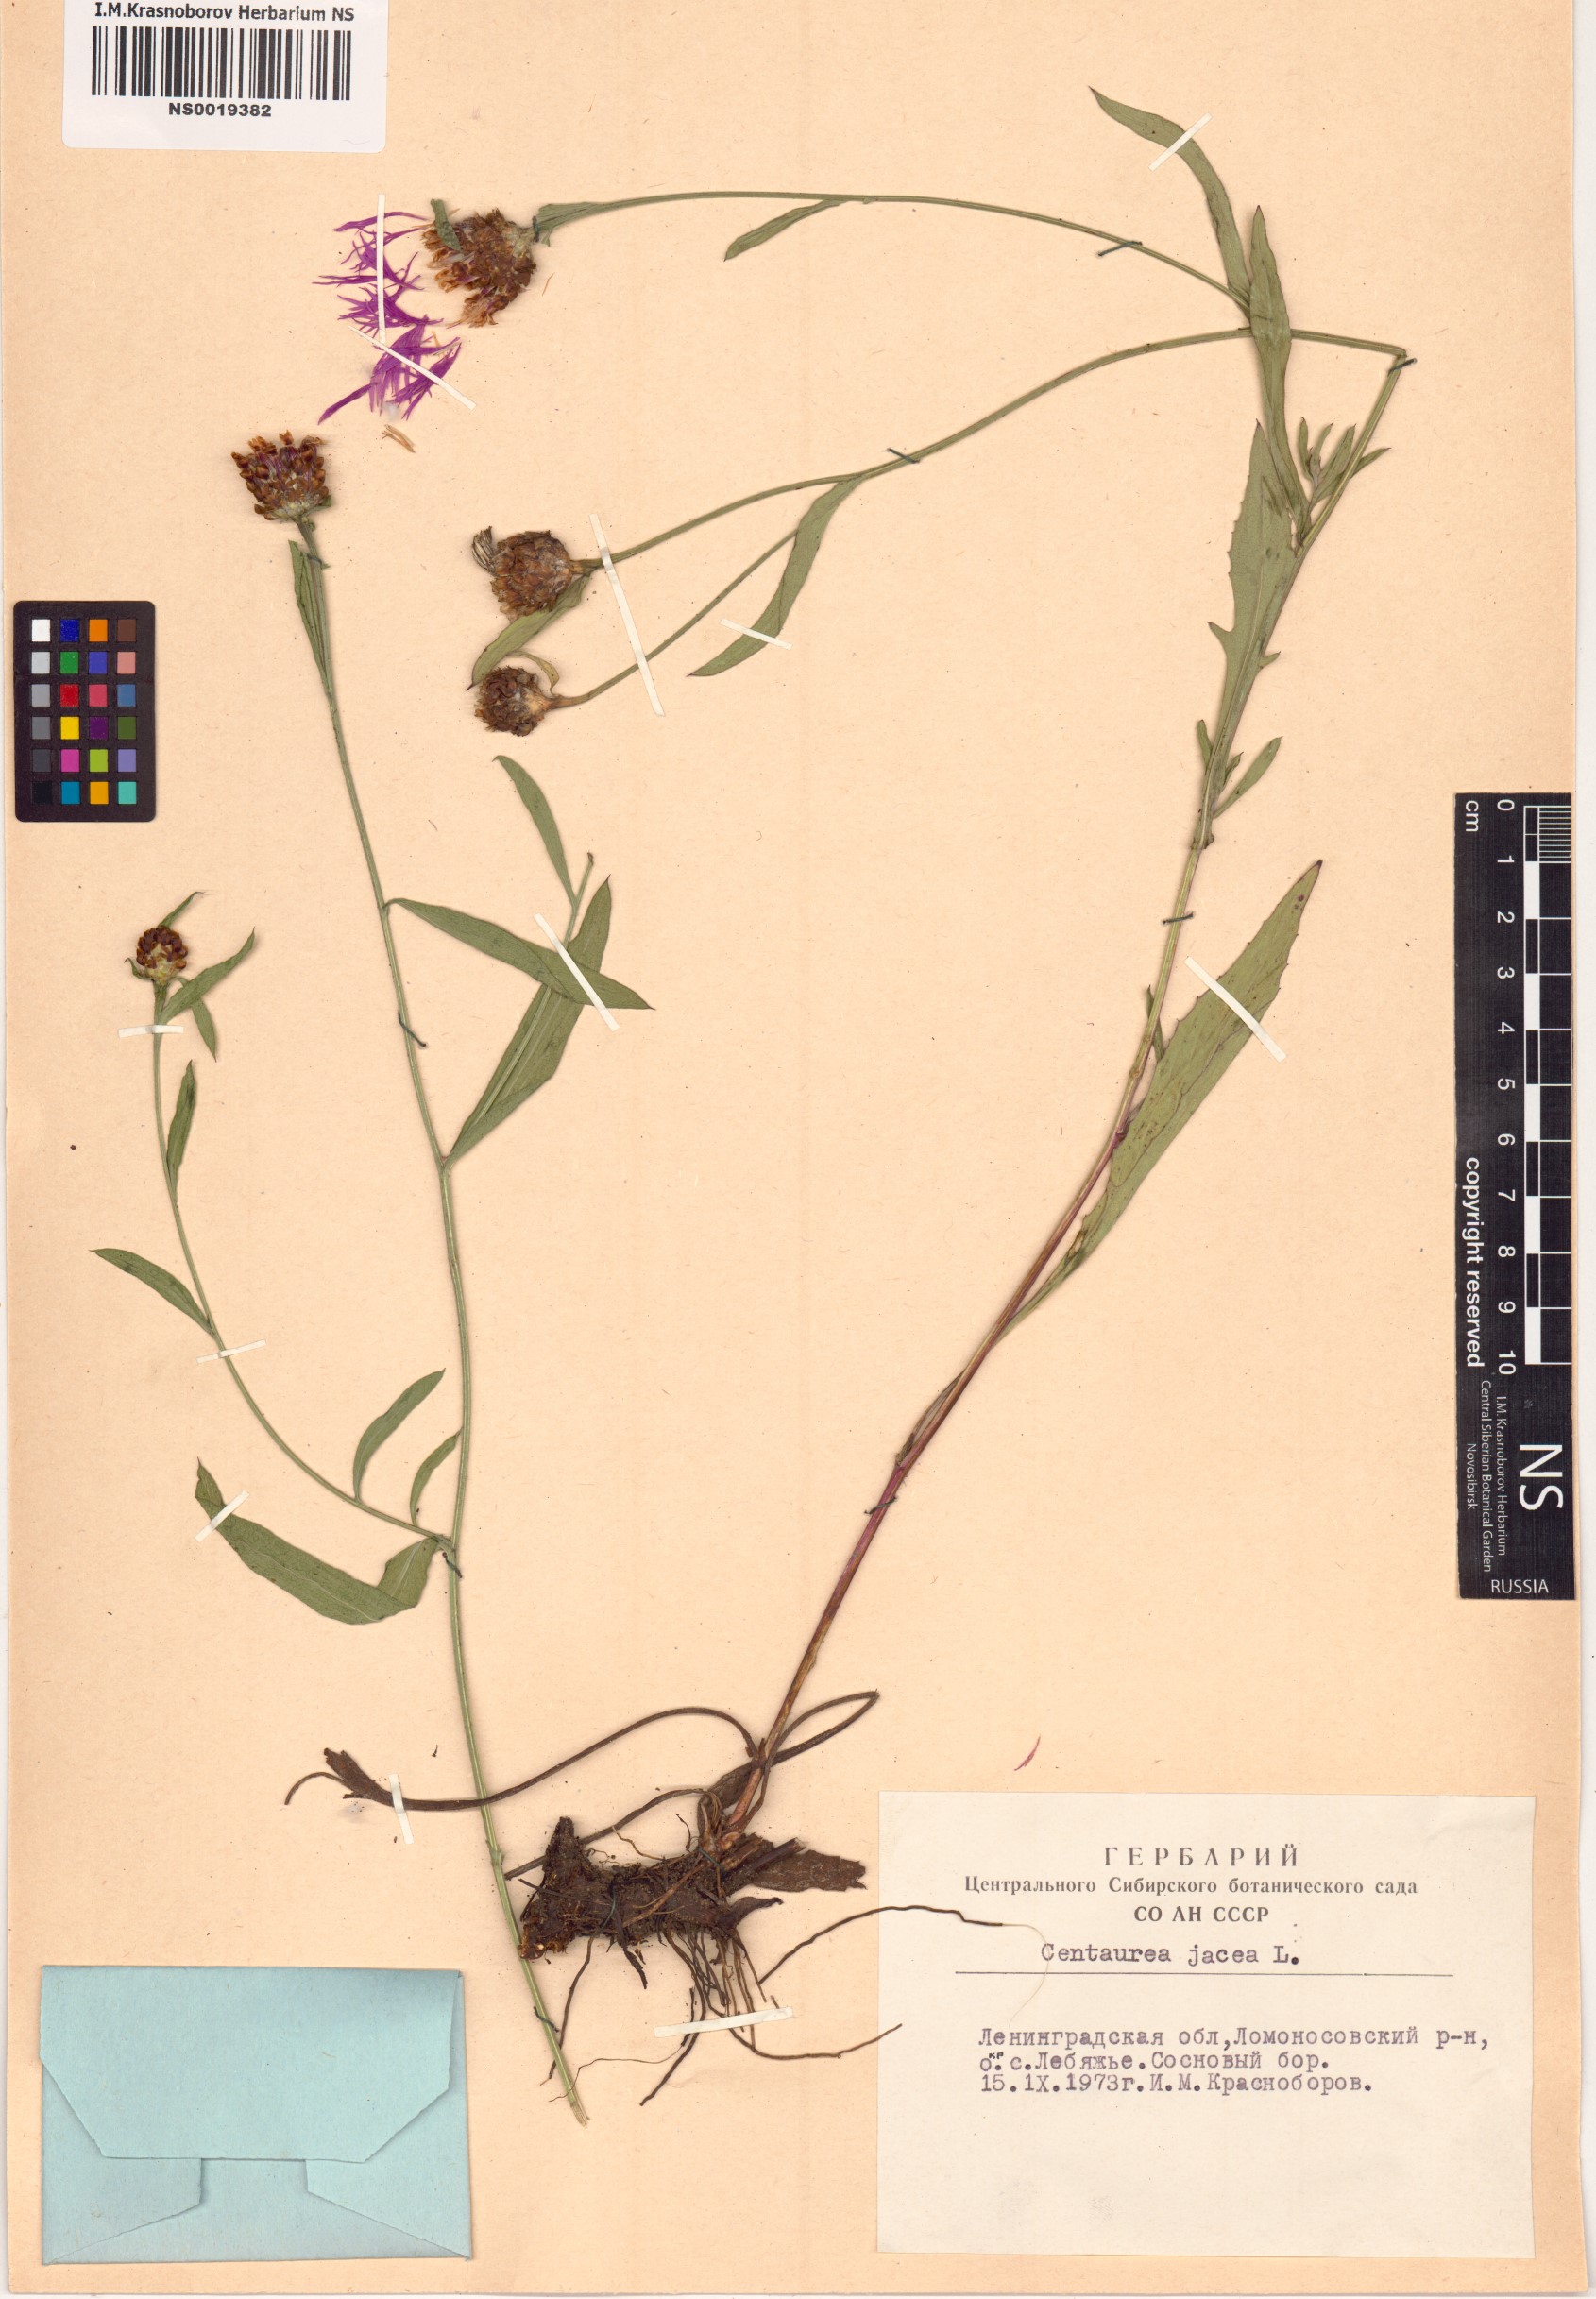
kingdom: Plantae
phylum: Tracheophyta
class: Magnoliopsida
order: Asterales
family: Asteraceae
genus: Centaurea
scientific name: Centaurea jacea
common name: Brown knapweed
